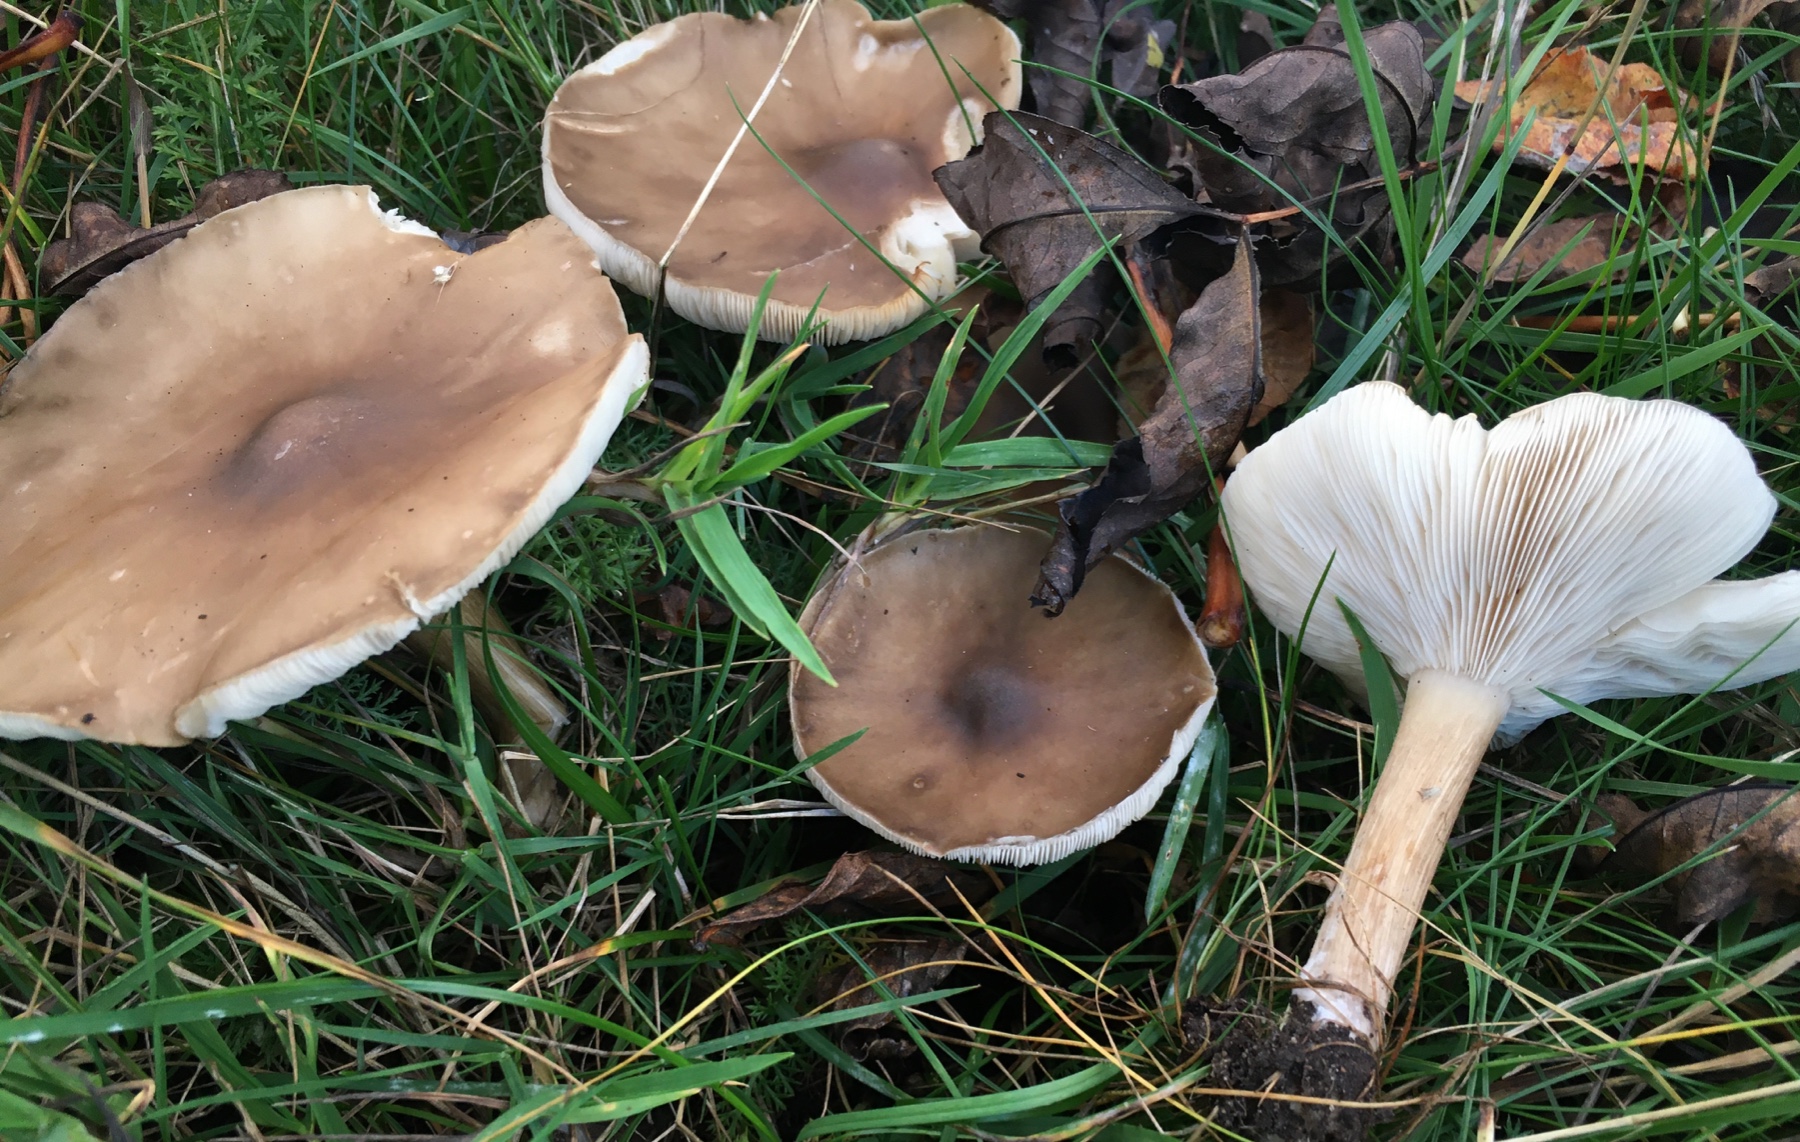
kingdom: Fungi
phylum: Basidiomycota
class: Agaricomycetes
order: Agaricales
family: Tricholomataceae
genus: Melanoleuca
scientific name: Melanoleuca
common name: munkehat
